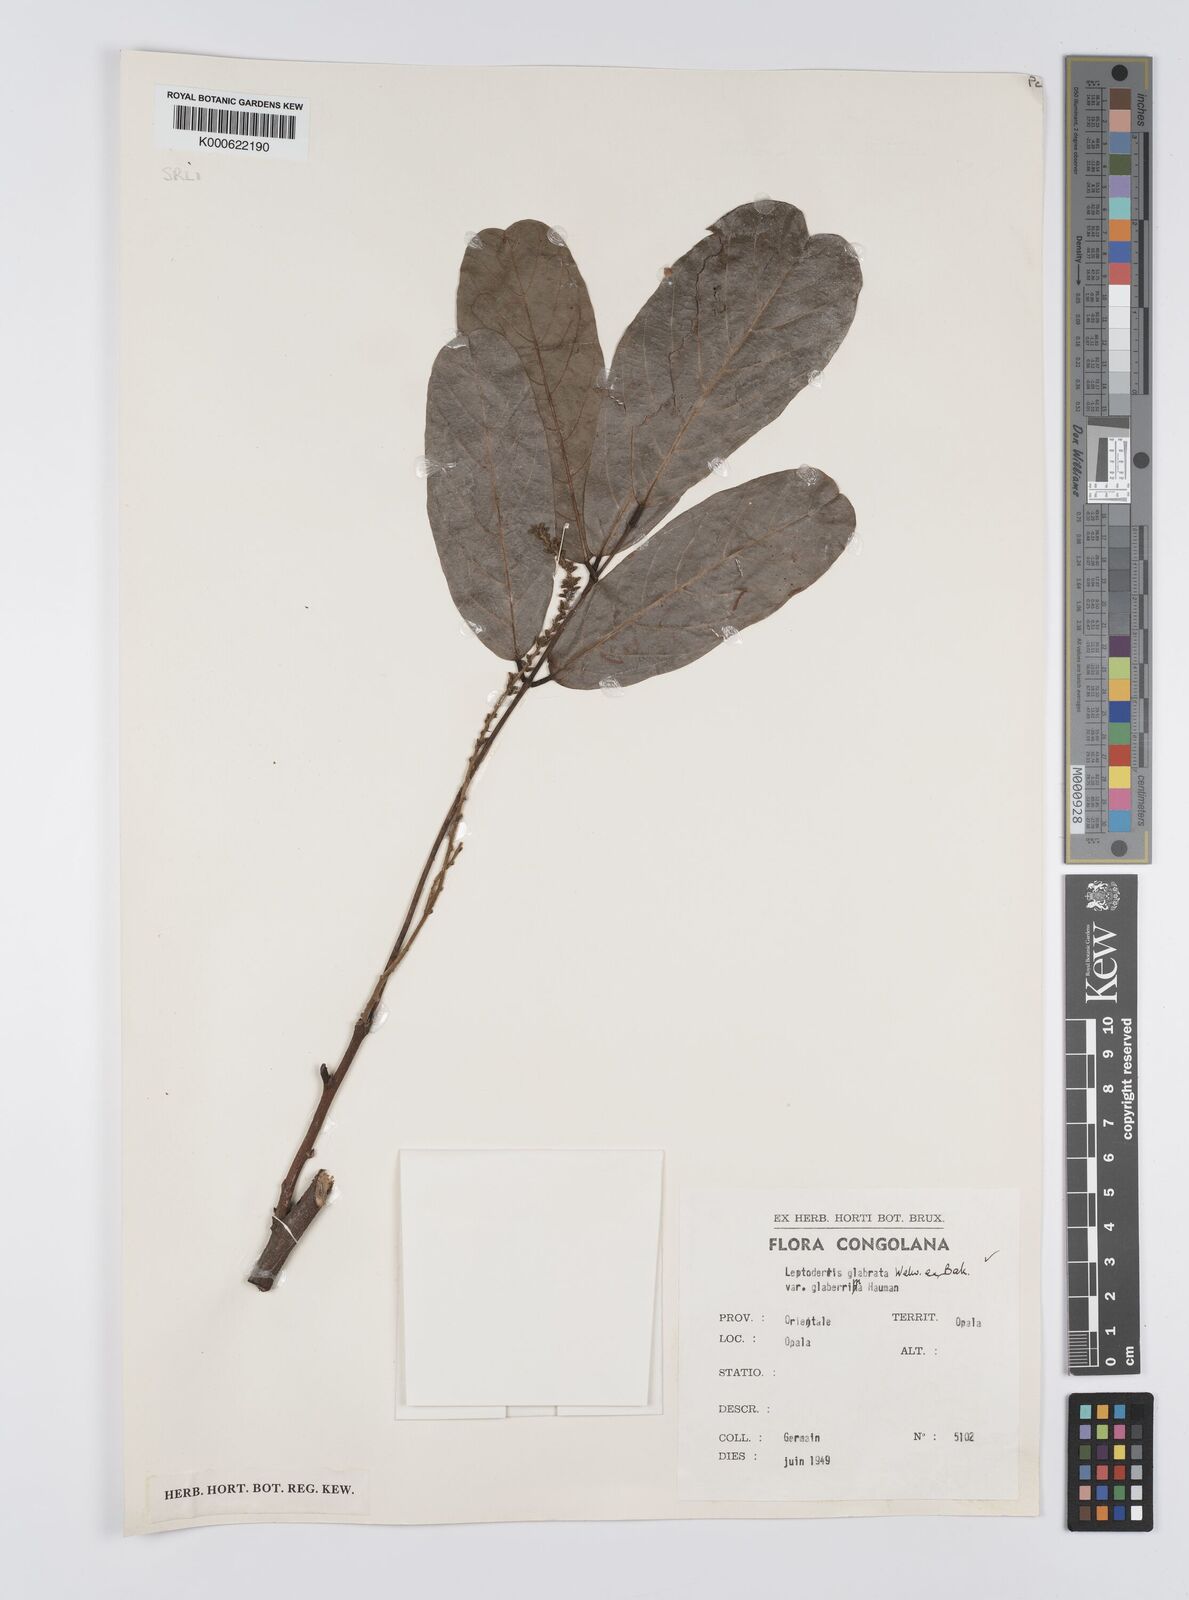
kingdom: Plantae
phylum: Tracheophyta
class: Magnoliopsida
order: Fabales
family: Fabaceae
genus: Leptoderris
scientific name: Leptoderris
